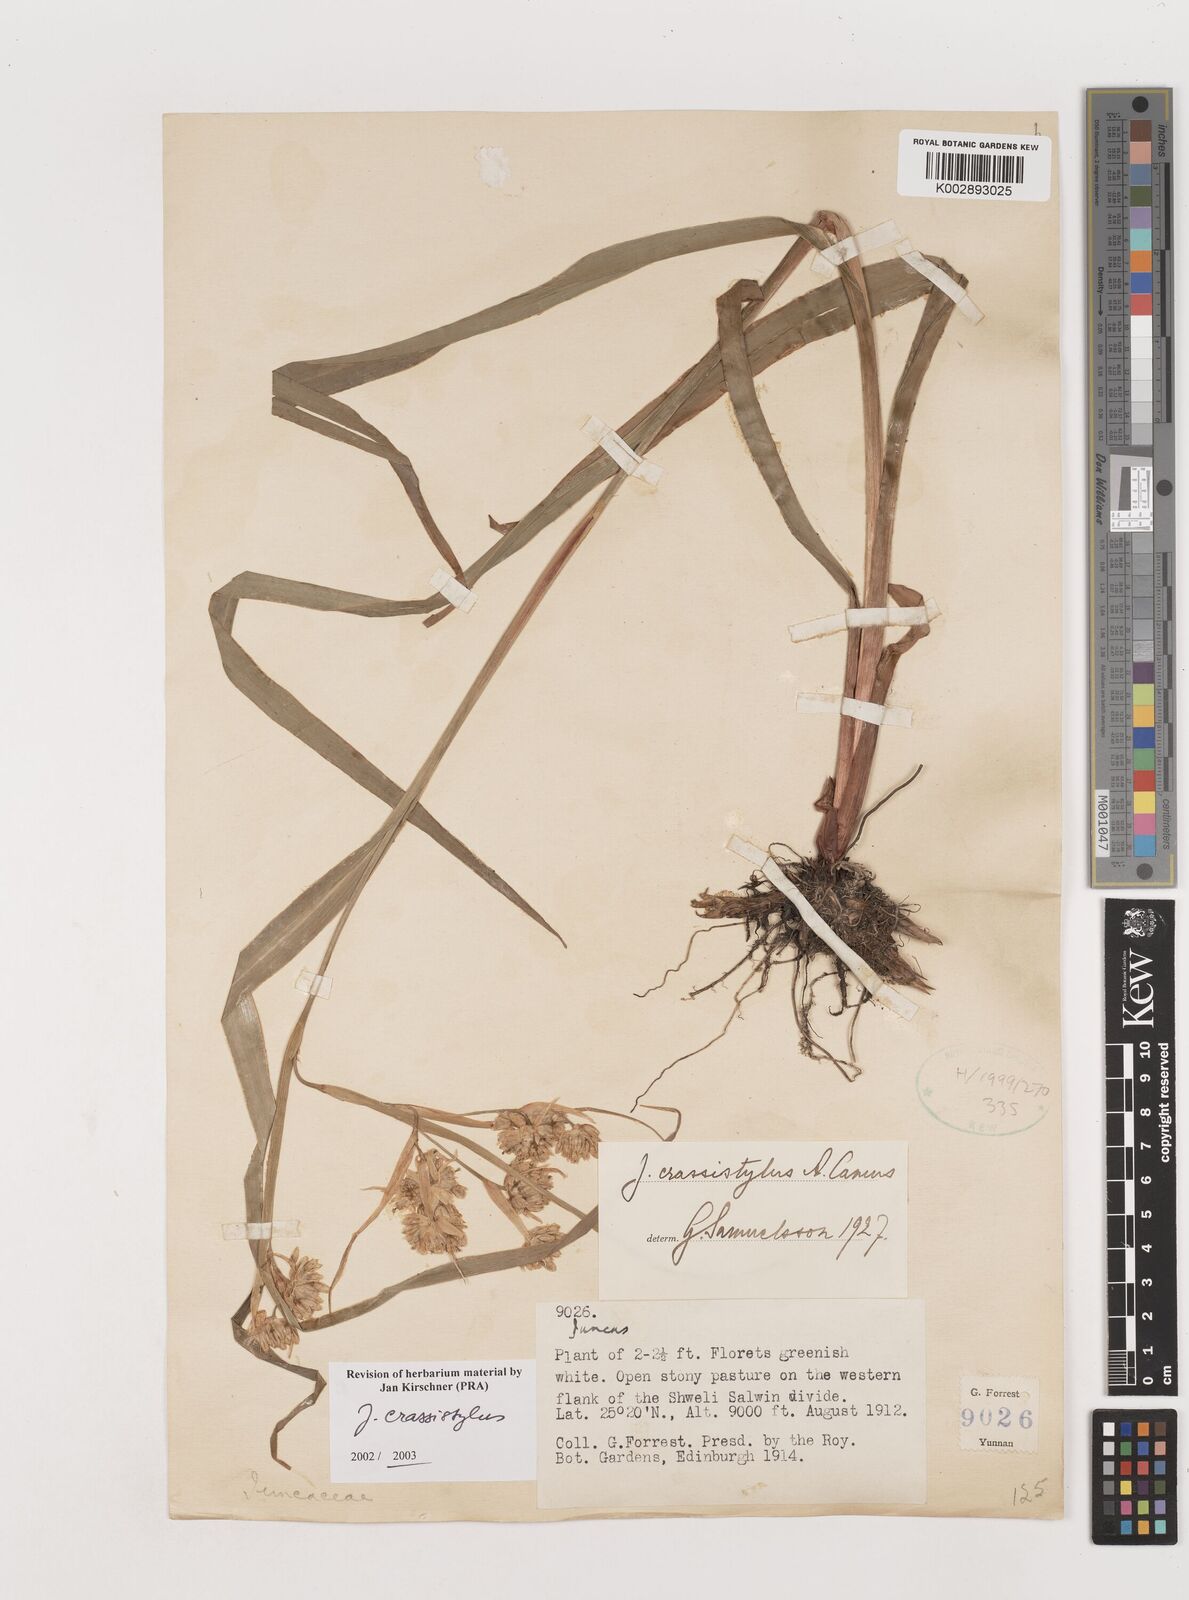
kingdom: Plantae
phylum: Tracheophyta
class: Liliopsida
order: Poales
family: Juncaceae
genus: Juncus
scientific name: Juncus crassistylus
